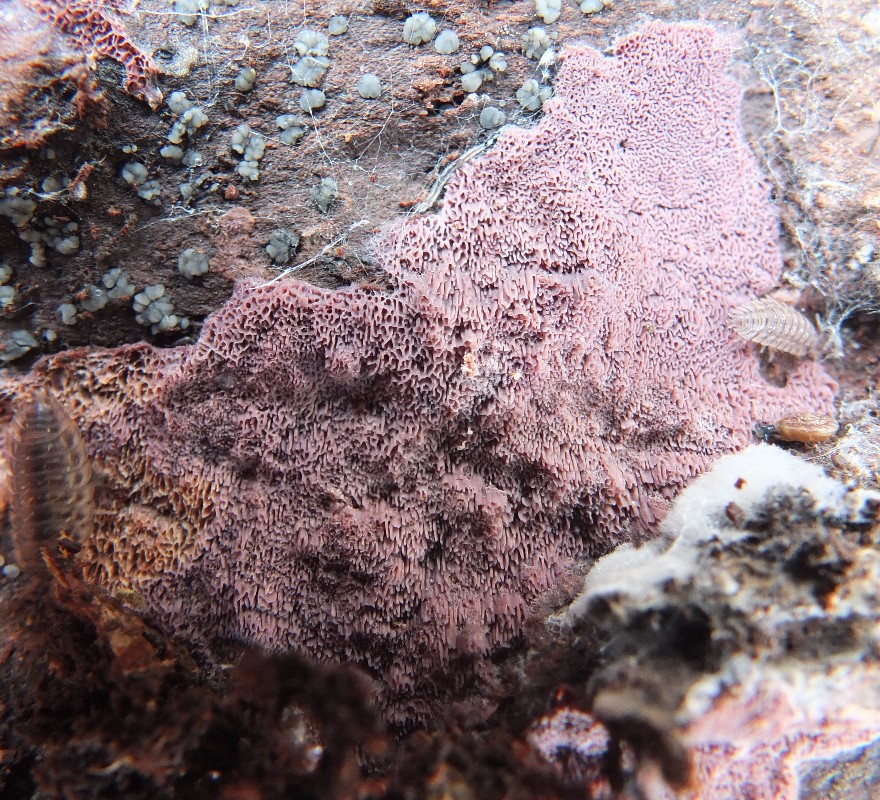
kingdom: Fungi
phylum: Basidiomycota
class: Agaricomycetes
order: Polyporales
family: Irpicaceae
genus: Ceriporia
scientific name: Ceriporia excelsa
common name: lilla voksporesvamp
